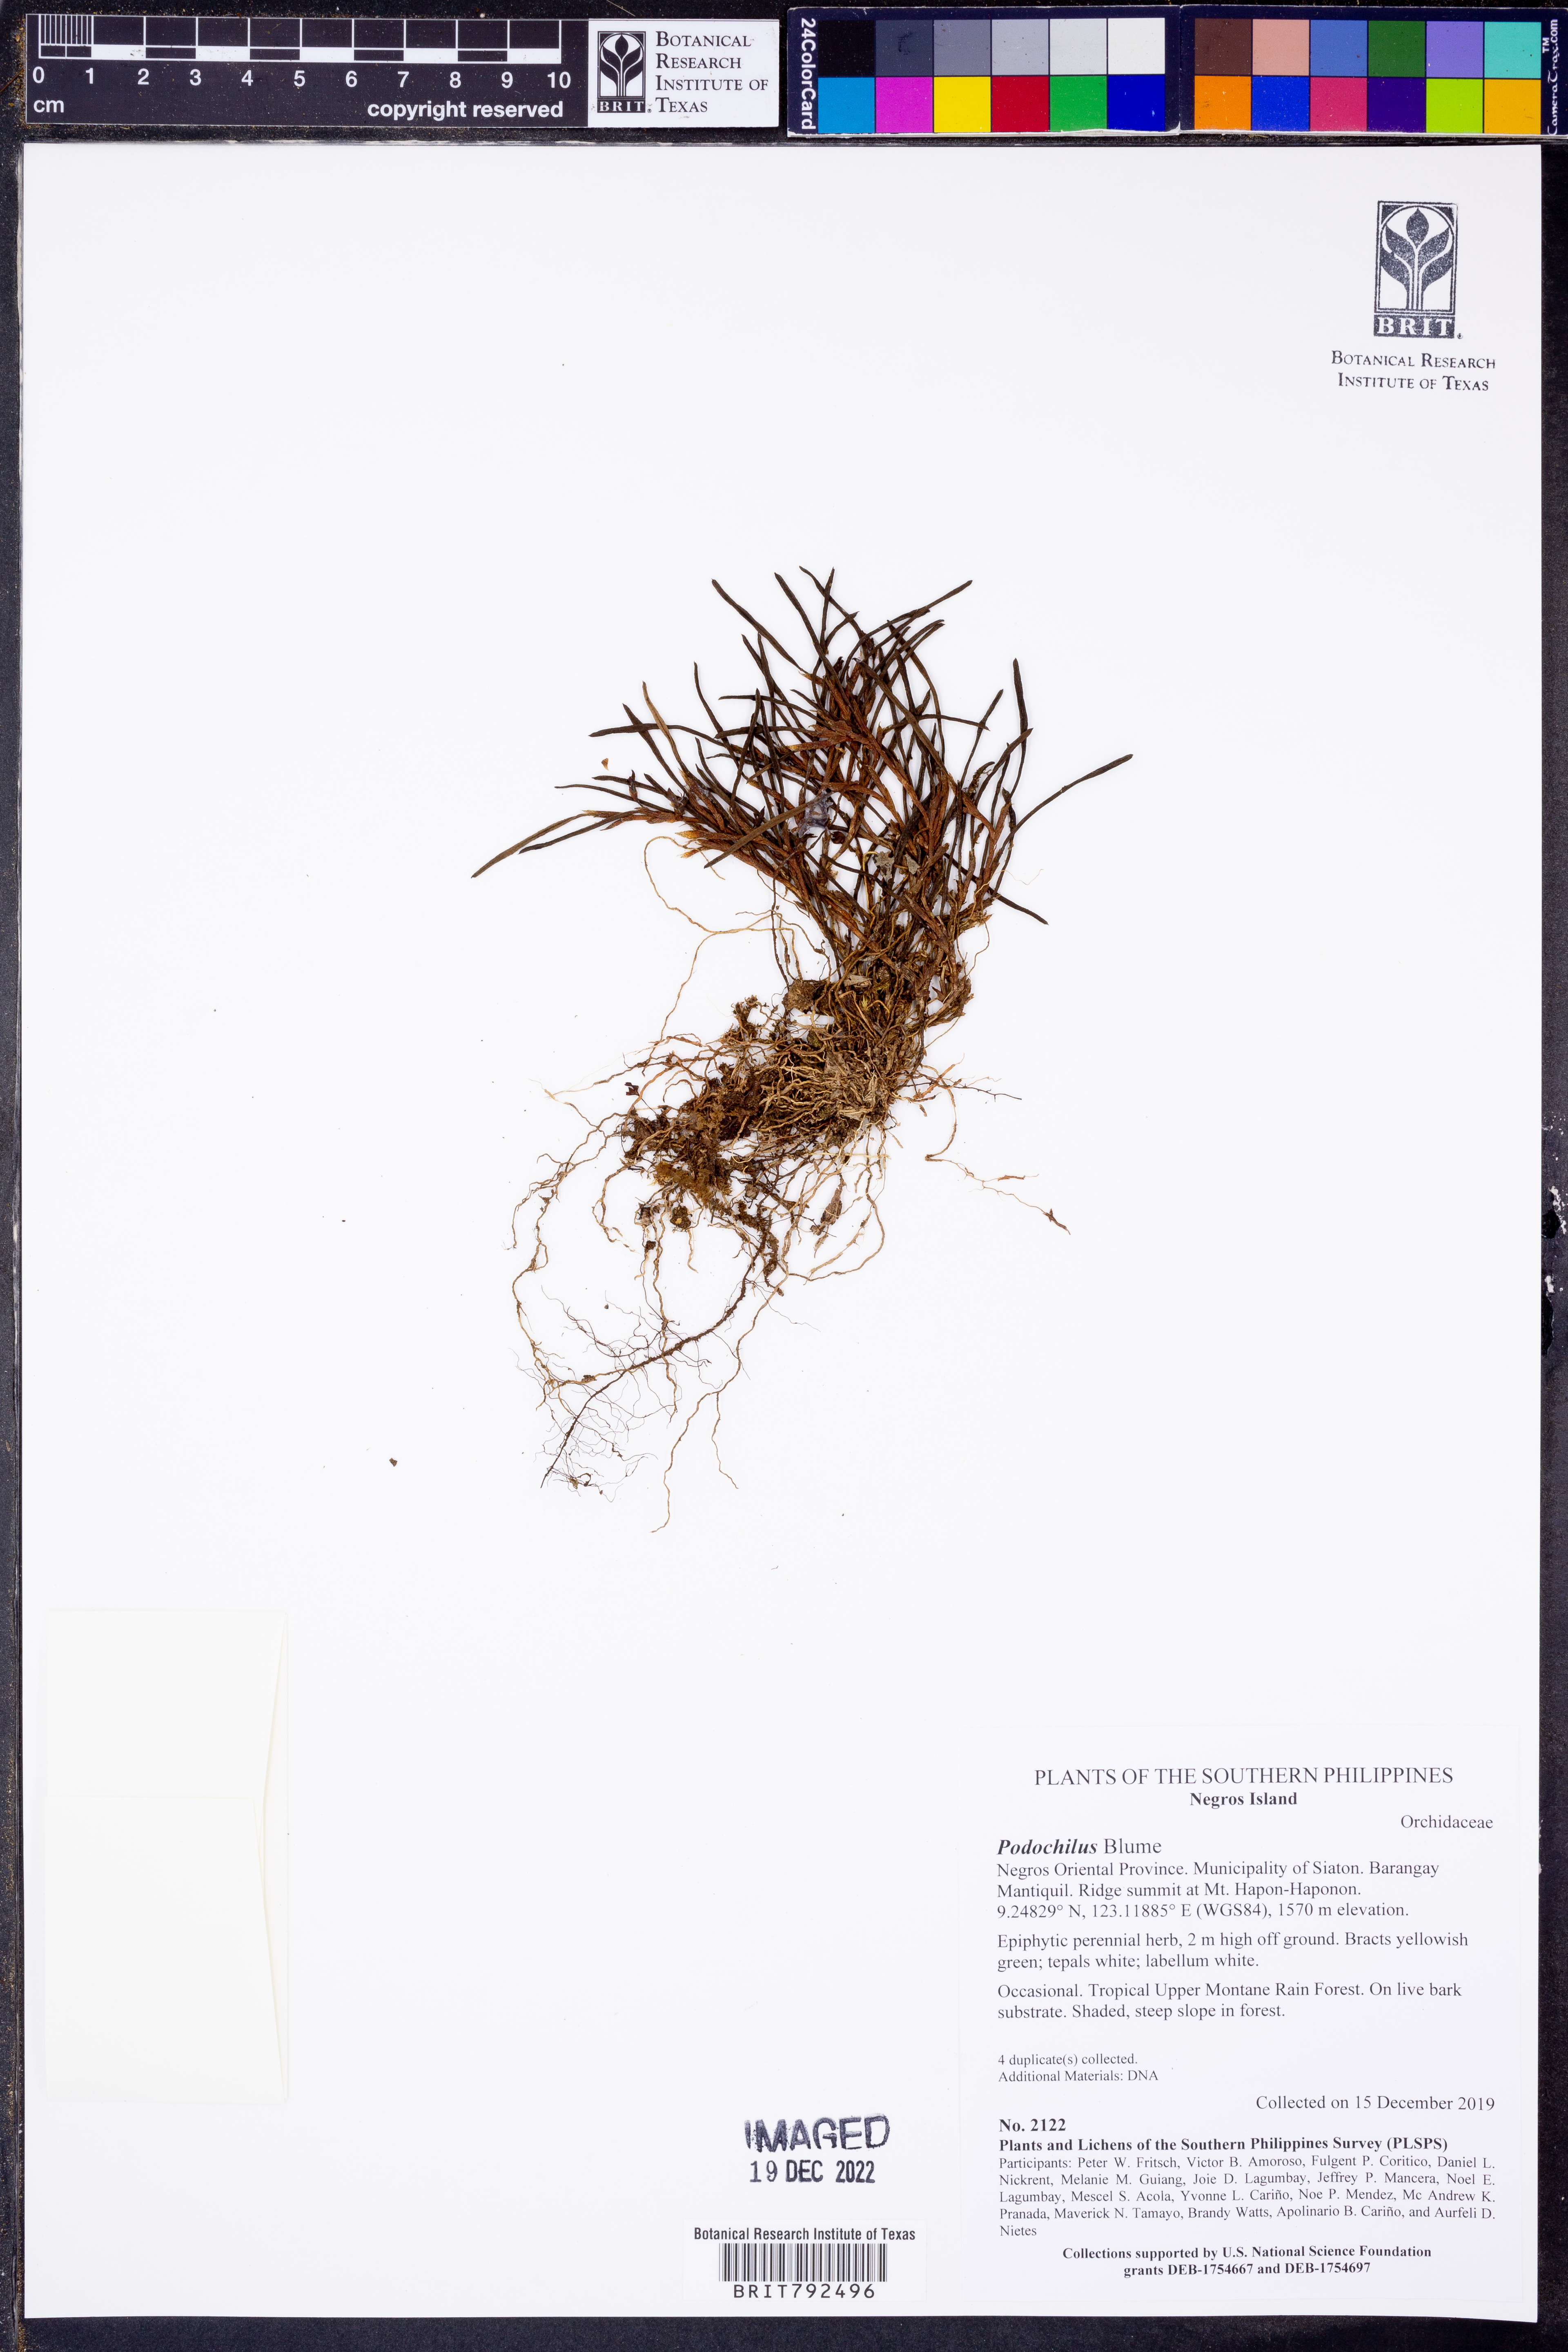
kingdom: Plantae
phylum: Tracheophyta
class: Liliopsida
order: Asparagales
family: Orchidaceae
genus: Podochilus
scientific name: Podochilus
